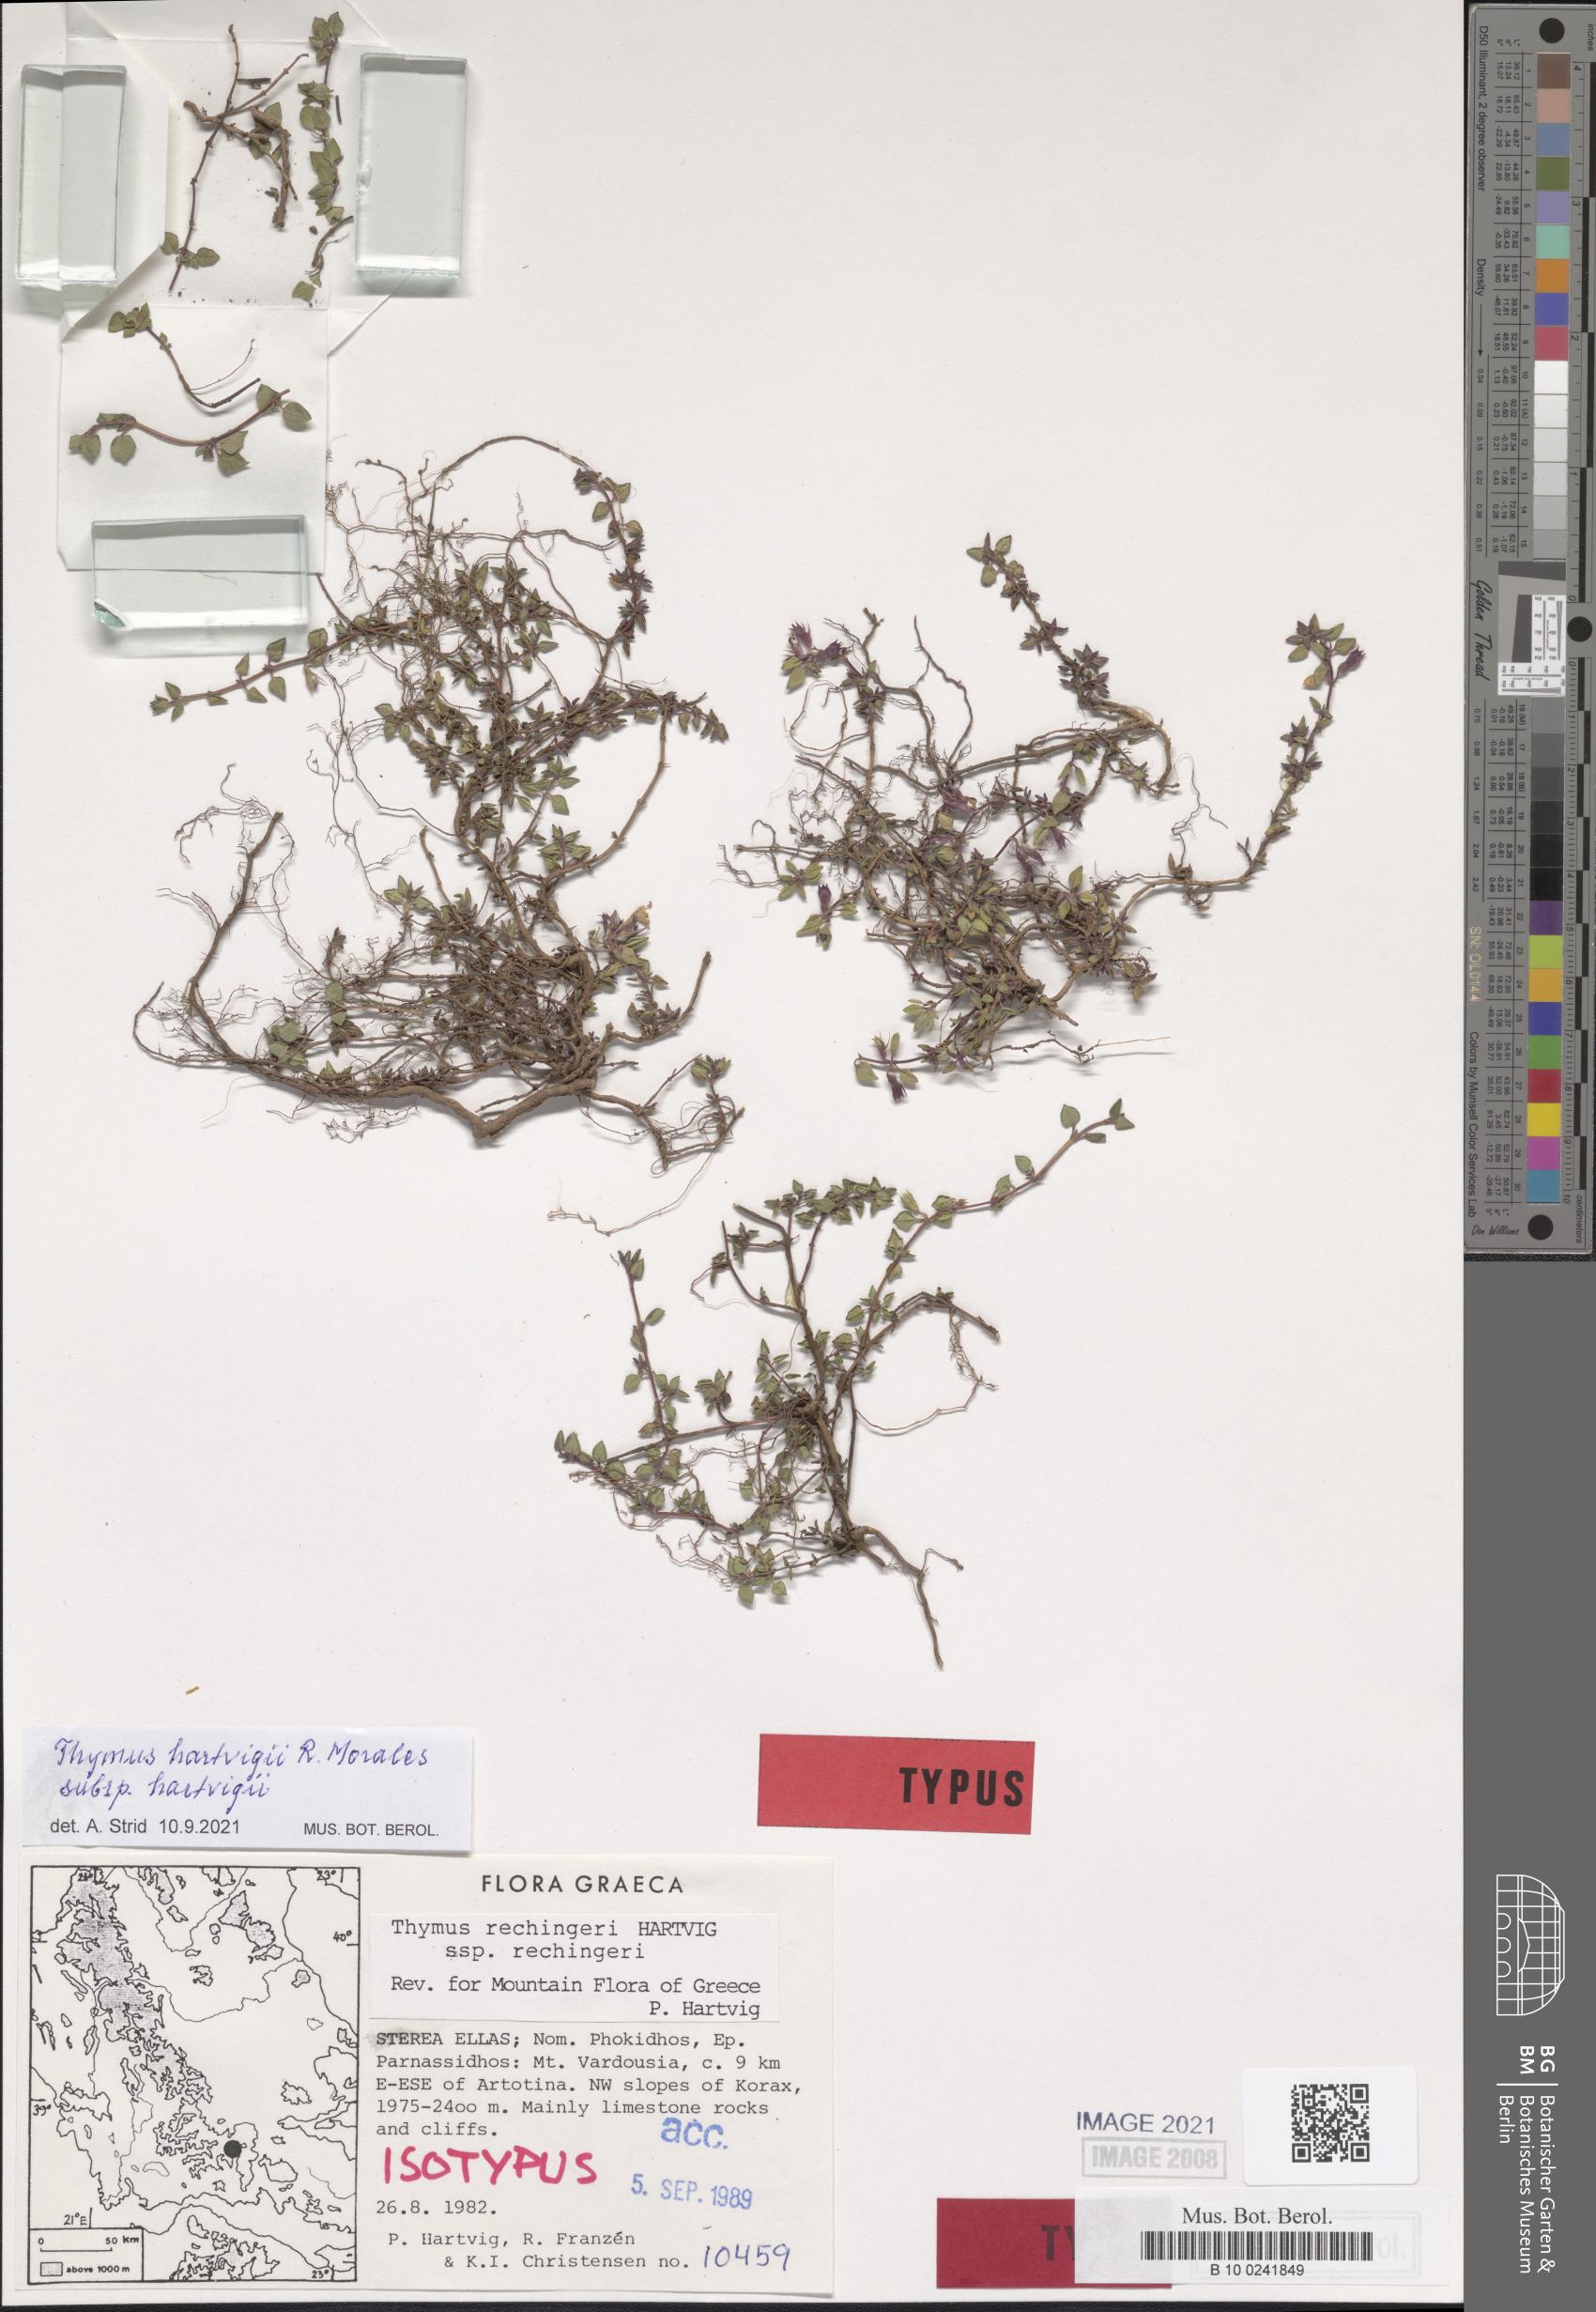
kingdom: Plantae
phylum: Tracheophyta
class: Magnoliopsida
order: Lamiales
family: Lamiaceae
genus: Thymus
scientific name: Thymus hartvigii
